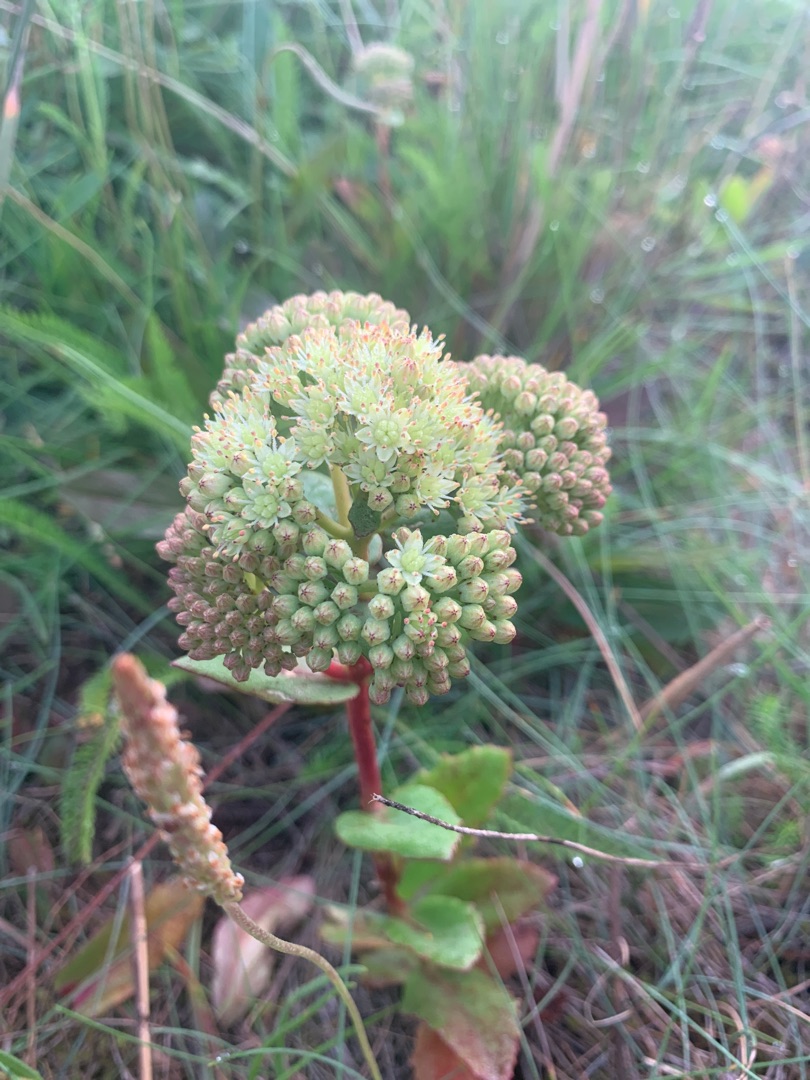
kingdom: Plantae
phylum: Tracheophyta
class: Magnoliopsida
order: Saxifragales
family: Crassulaceae
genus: Hylotelephium
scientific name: Hylotelephium maximum
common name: Almindelig sankthansurt
